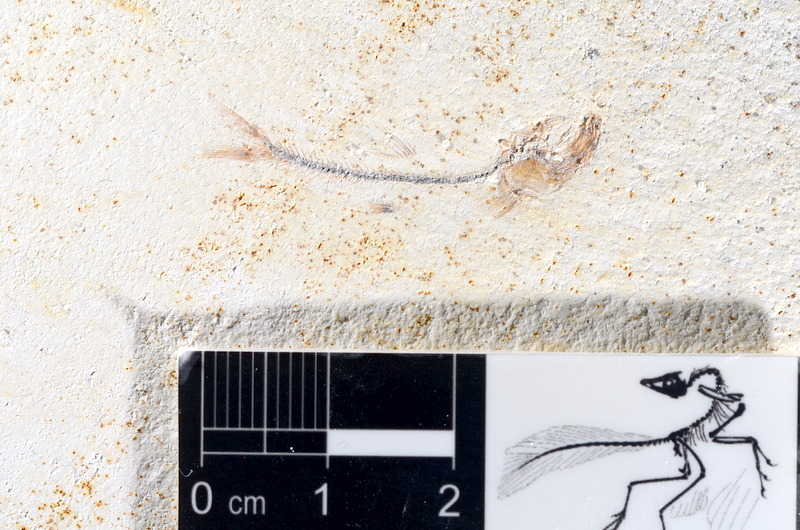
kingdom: Animalia
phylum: Chordata
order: Salmoniformes
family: Orthogonikleithridae
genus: Orthogonikleithrus
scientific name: Orthogonikleithrus hoelli
